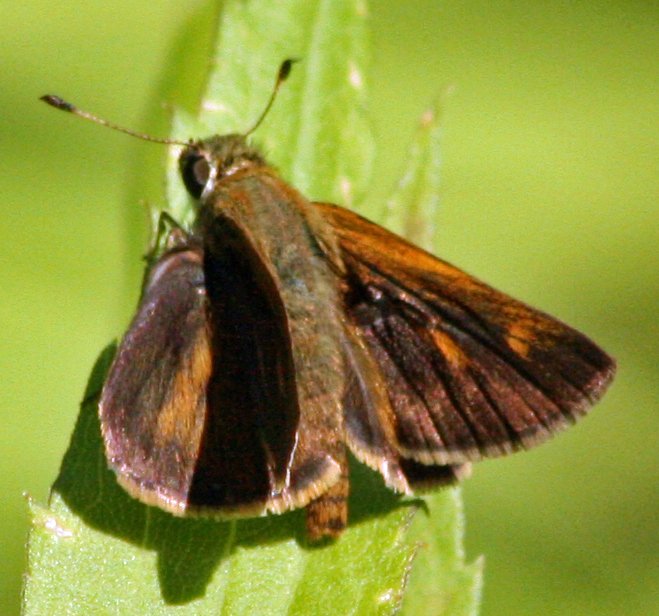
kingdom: Animalia
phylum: Arthropoda
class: Insecta
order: Lepidoptera
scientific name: Lepidoptera
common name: Butterflies
